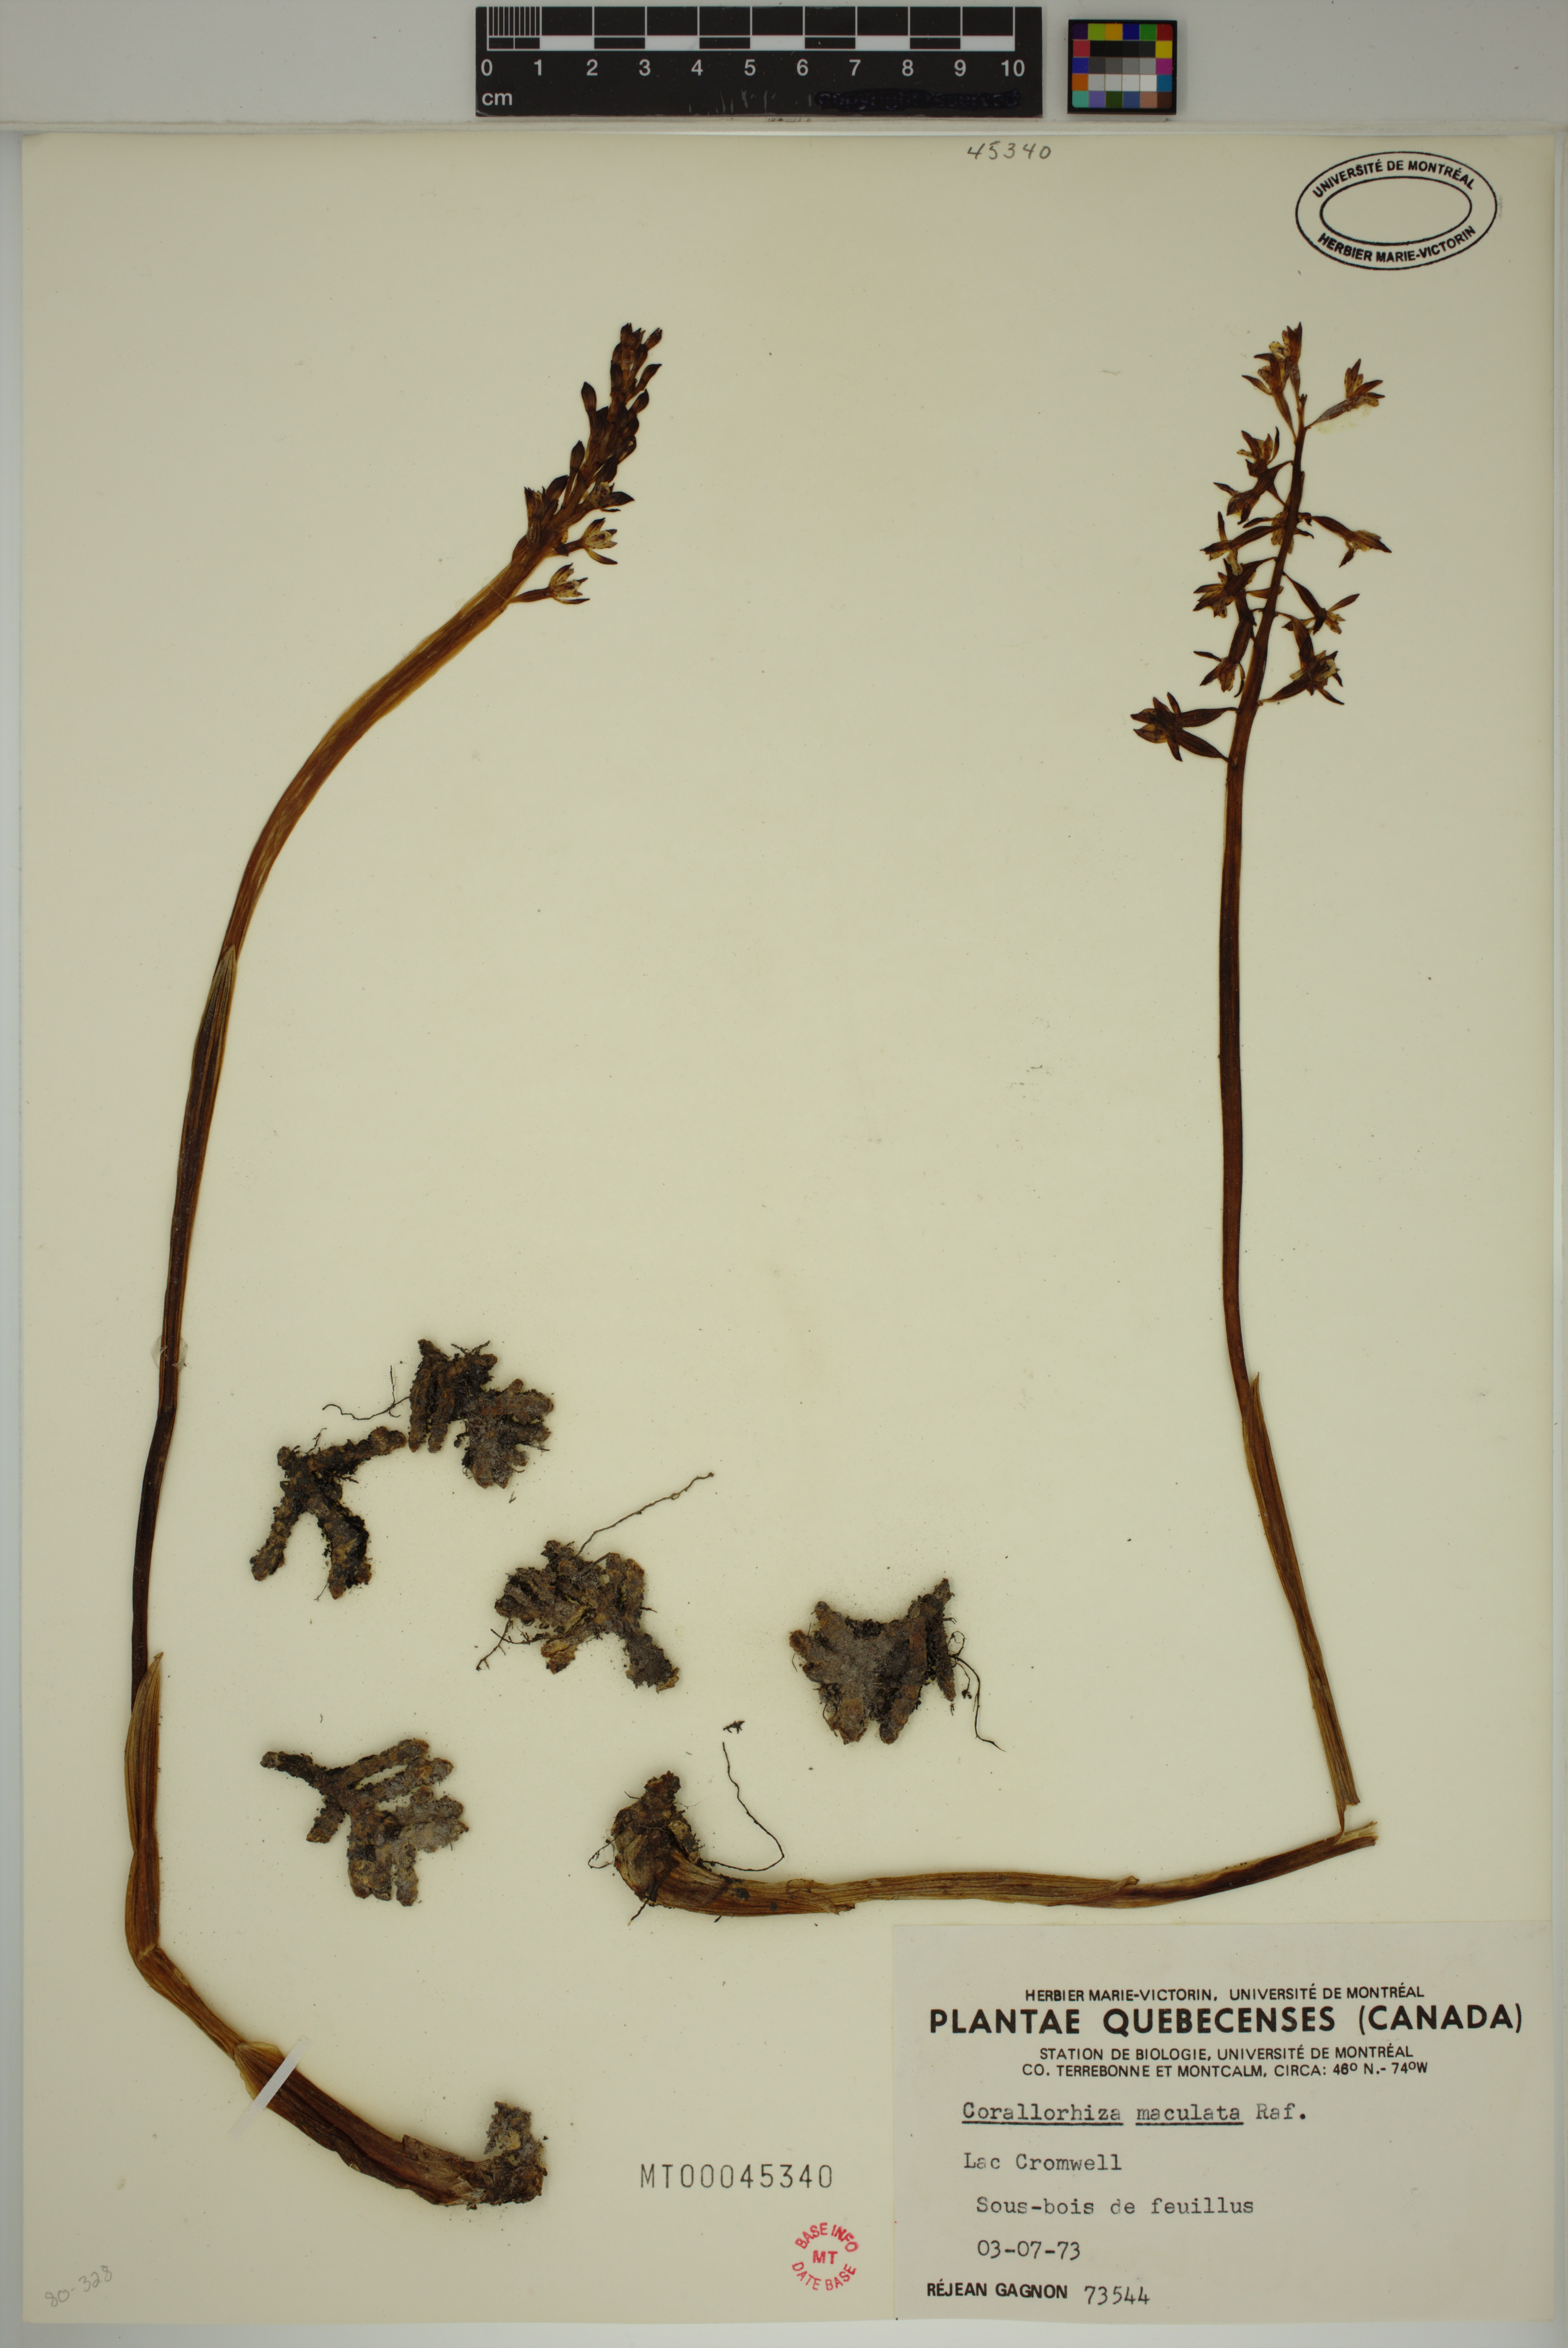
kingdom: Plantae
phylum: Tracheophyta
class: Liliopsida
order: Asparagales
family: Orchidaceae
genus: Corallorhiza
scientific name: Corallorhiza maculata
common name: Spotted coralroot
